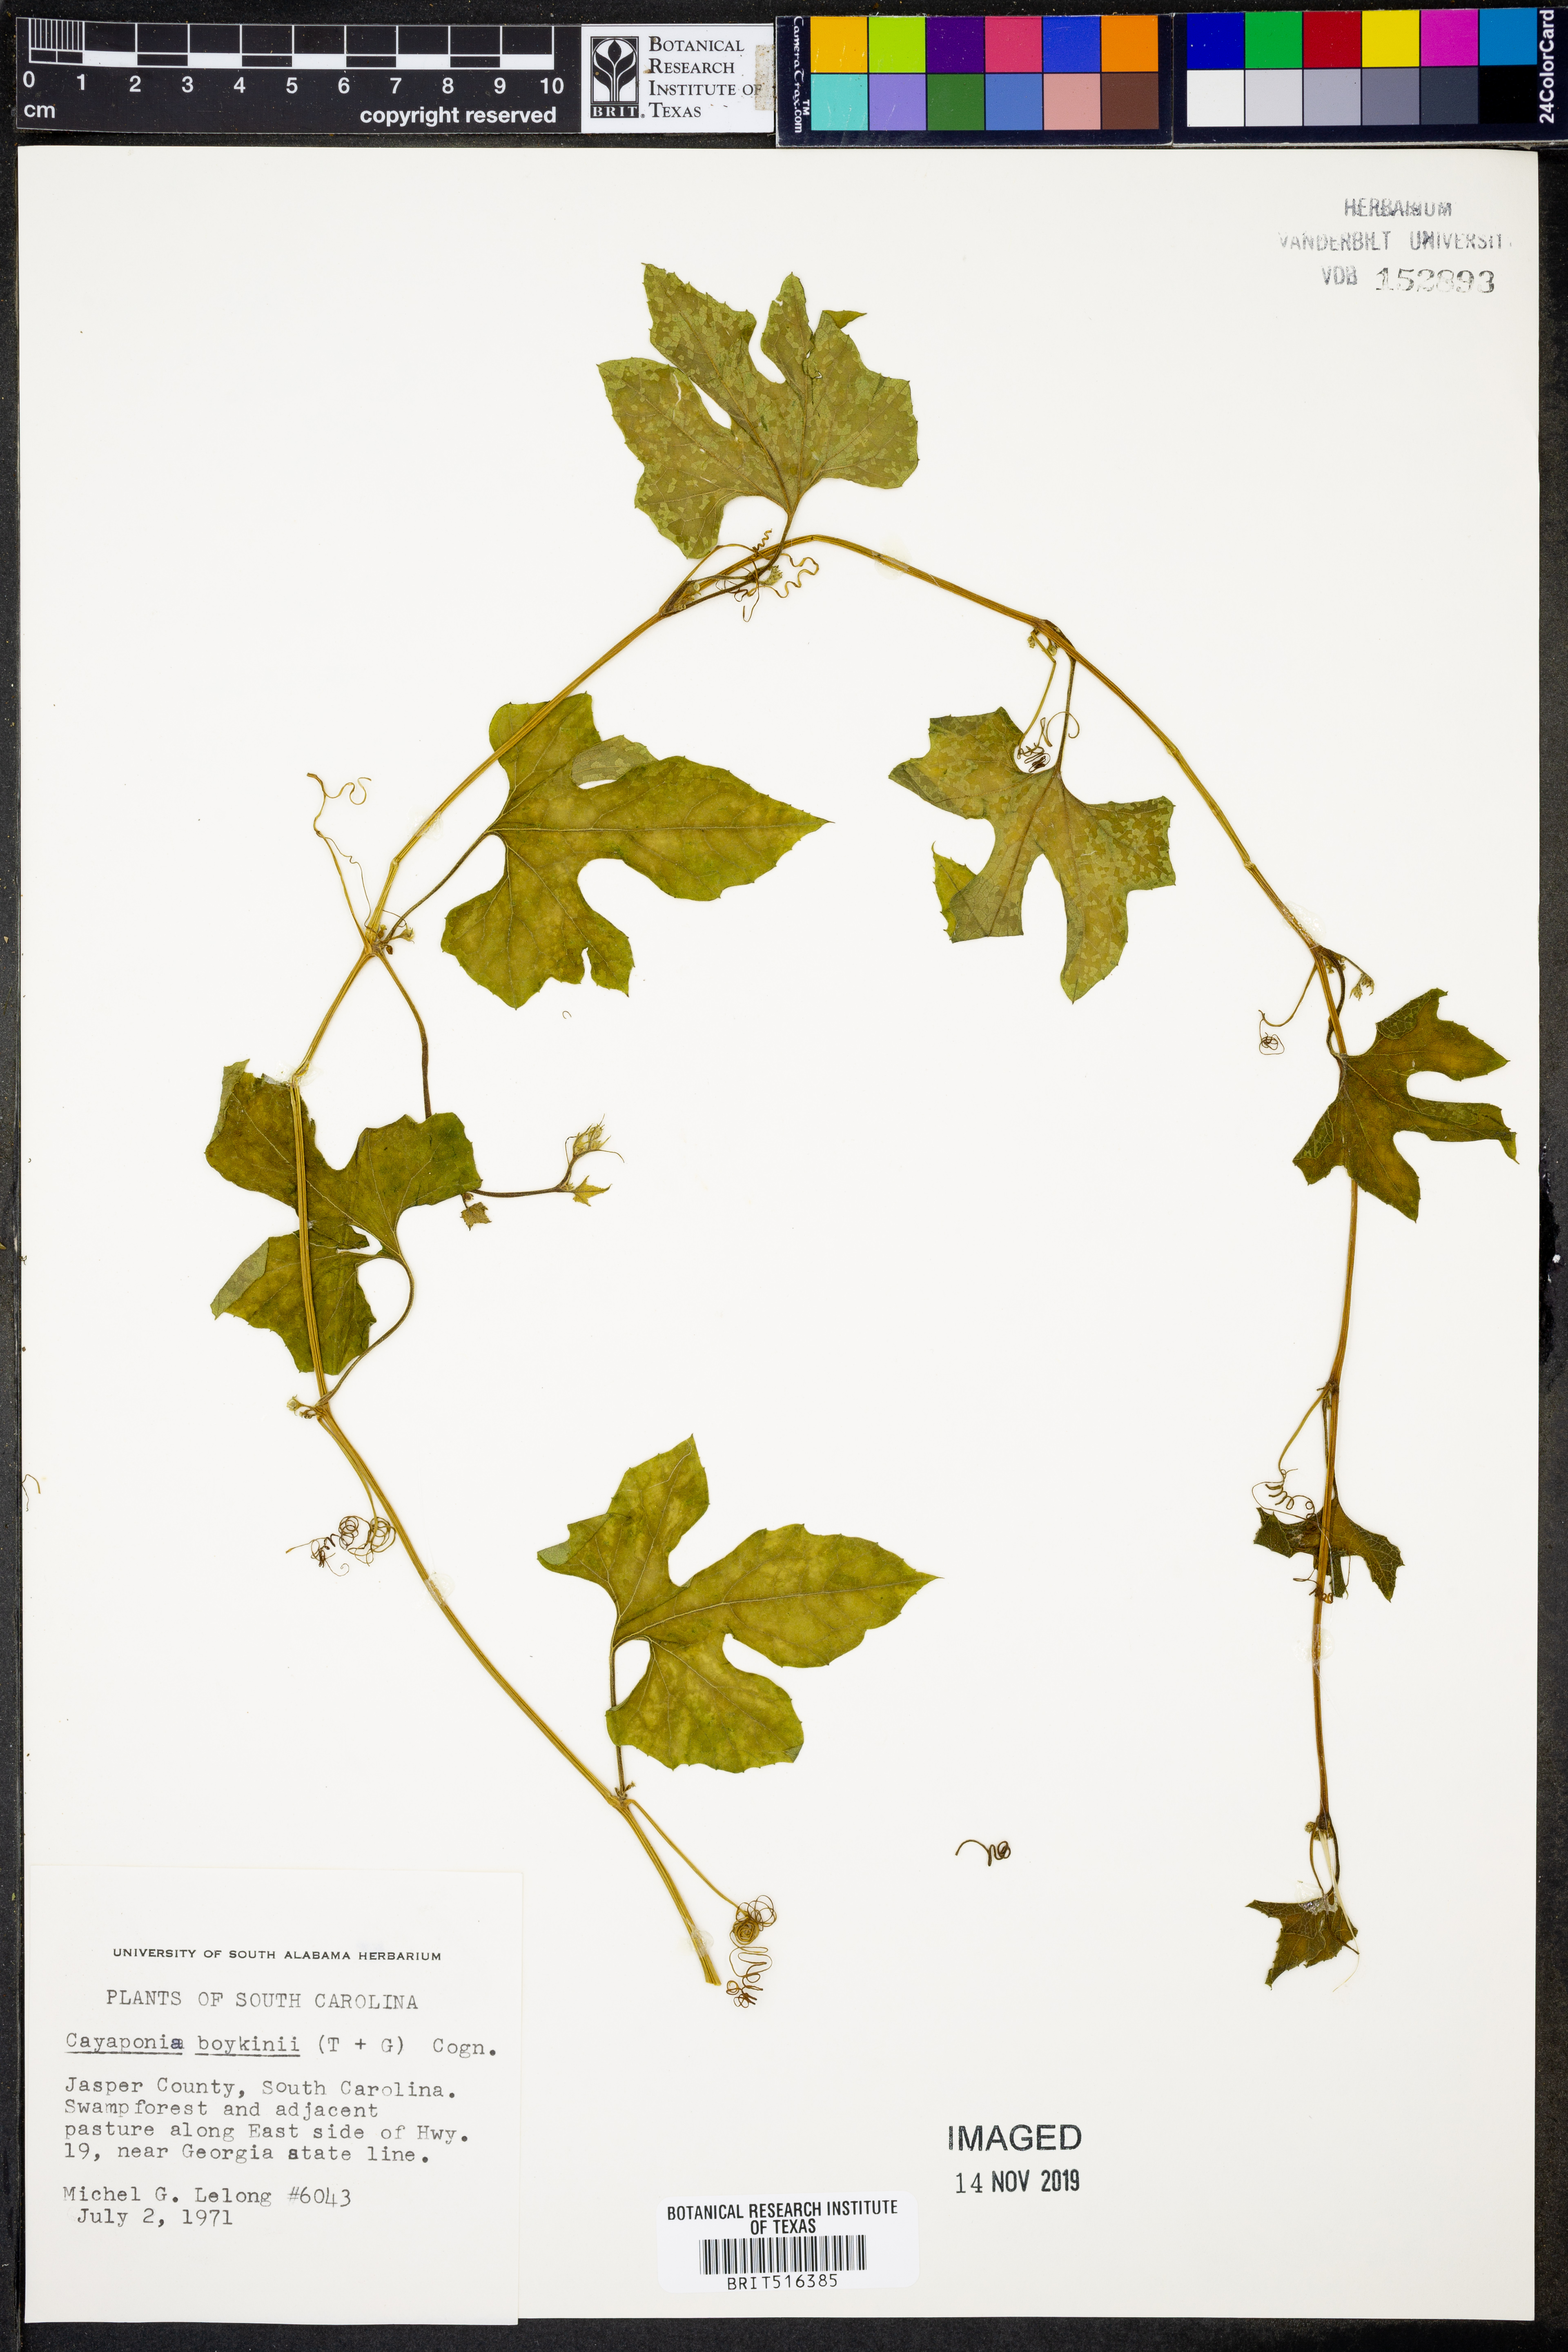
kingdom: Plantae
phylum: Tracheophyta
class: Magnoliopsida
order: Cucurbitales
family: Cucurbitaceae
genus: Cayaponia
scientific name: Cayaponia quinqueloba
